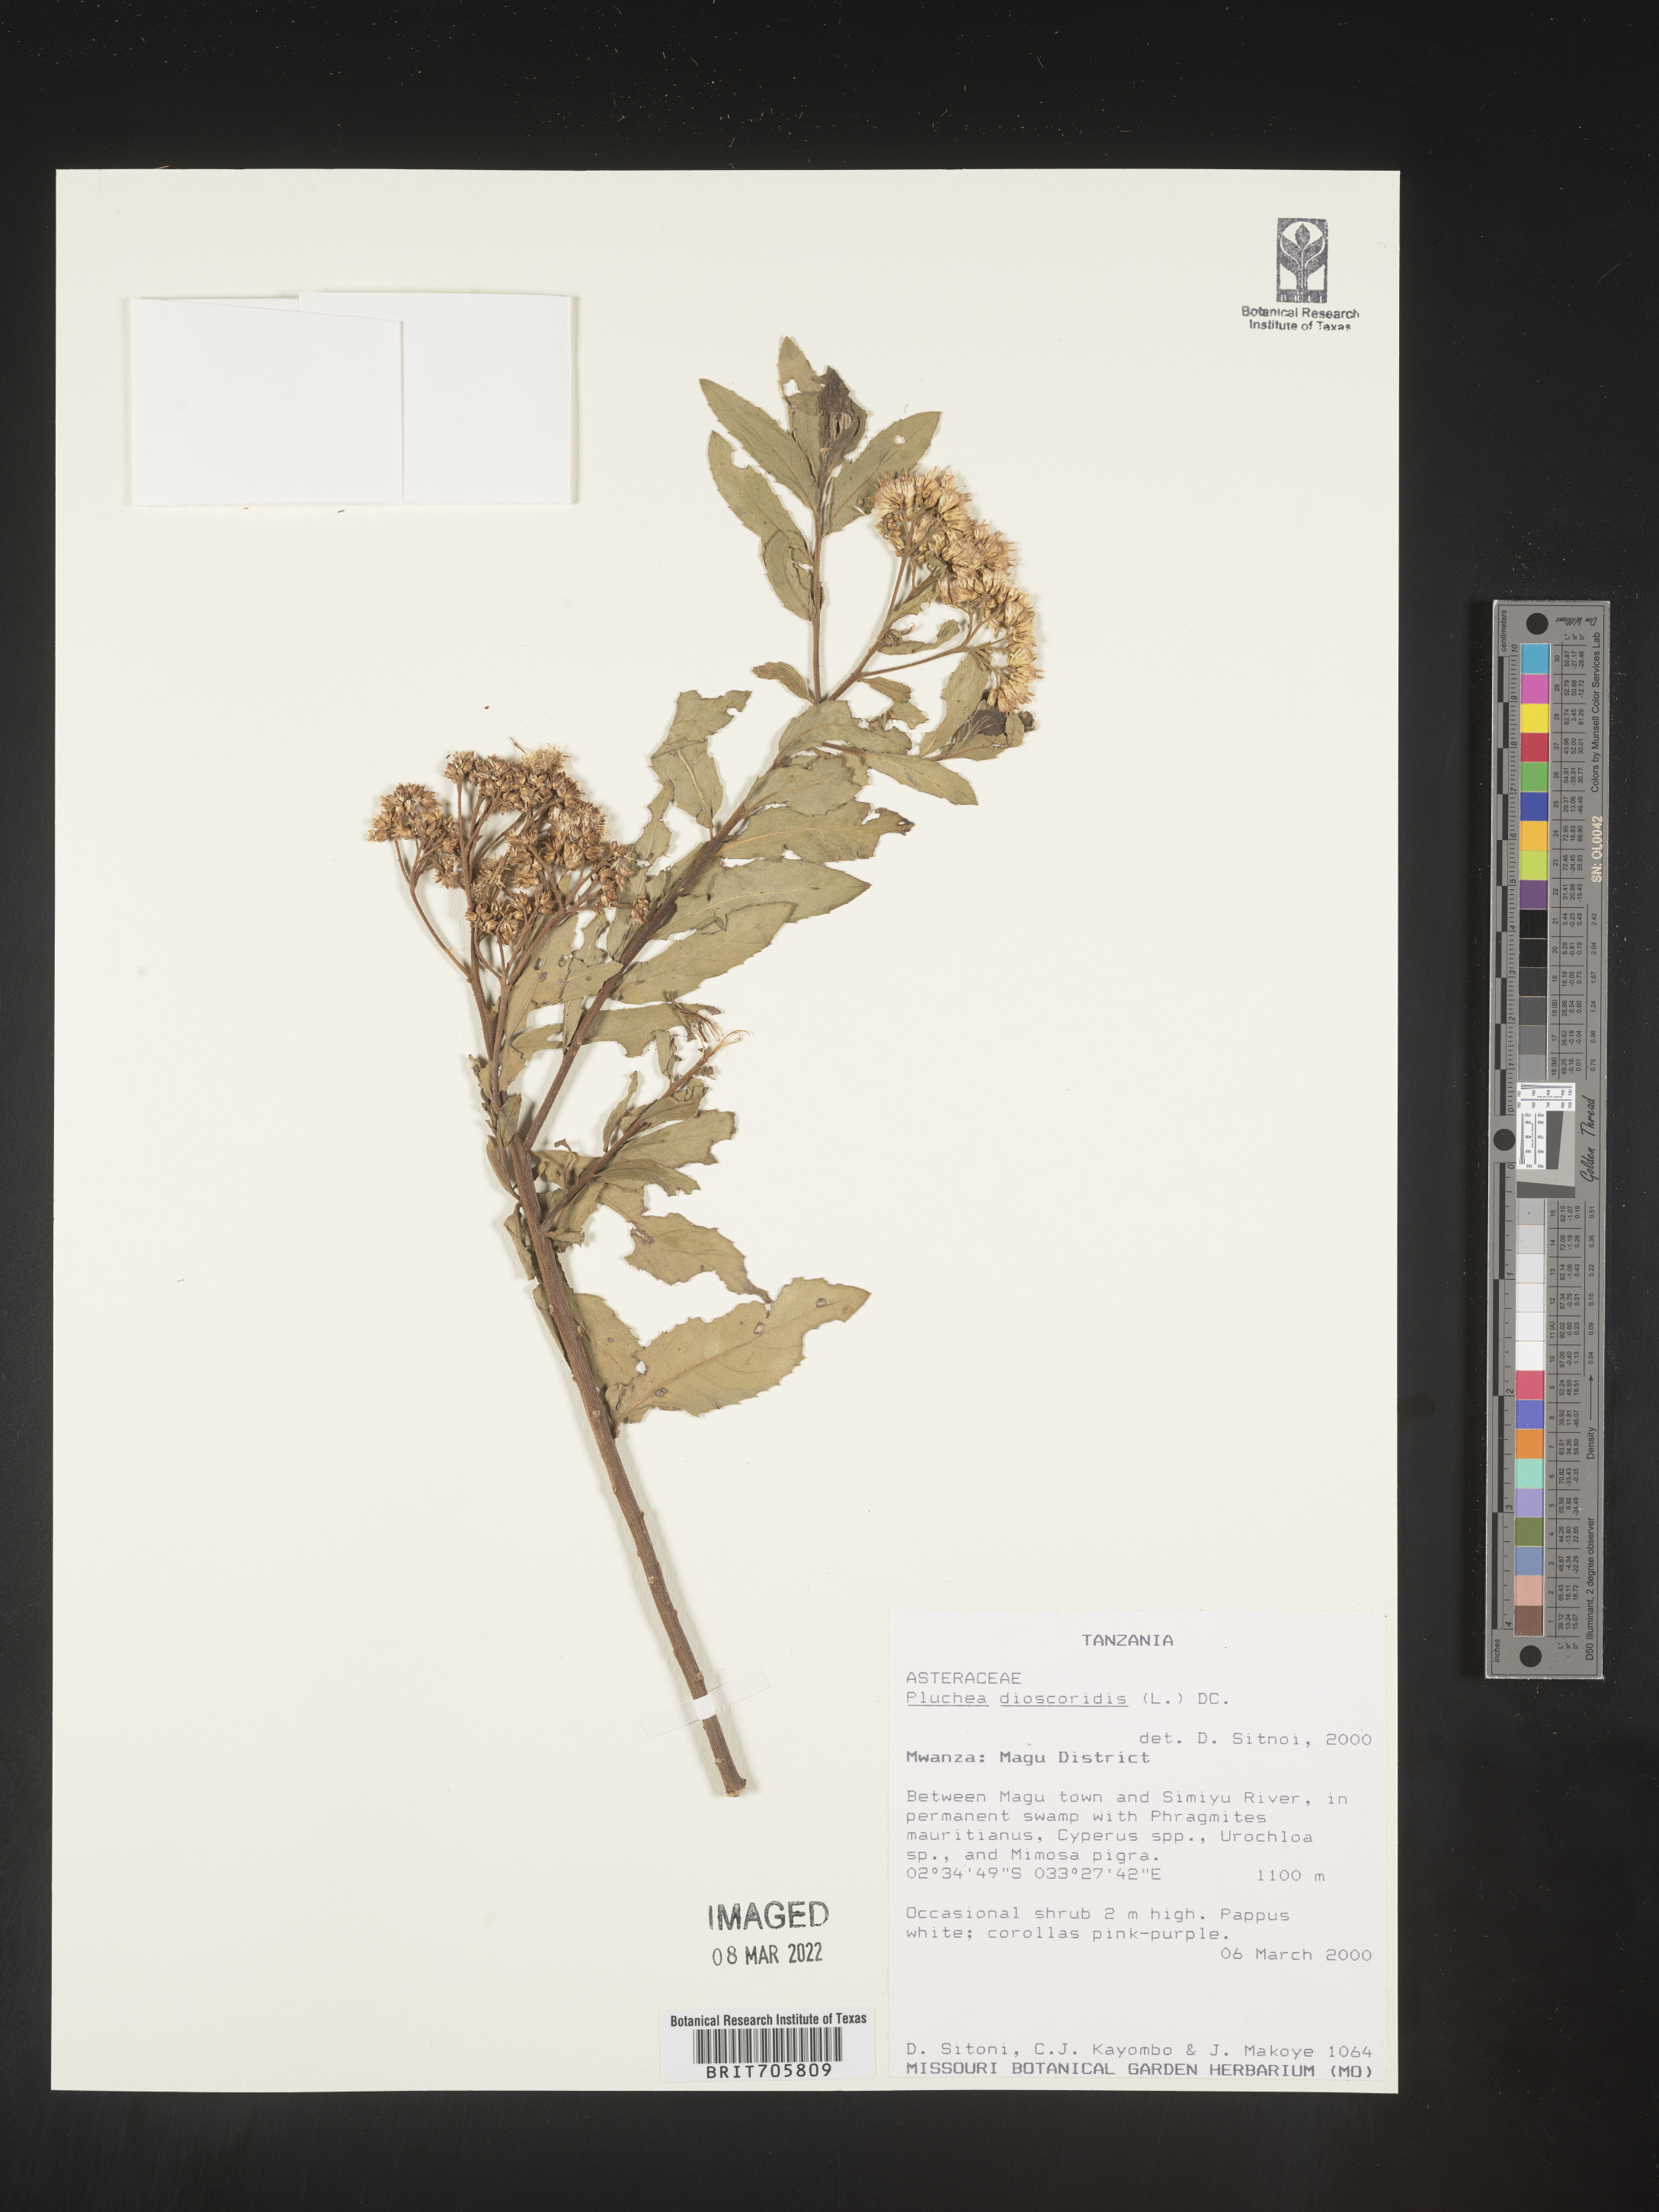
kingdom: Plantae
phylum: Tracheophyta
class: Magnoliopsida
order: Asterales
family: Asteraceae
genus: Pluchea
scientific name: Pluchea
